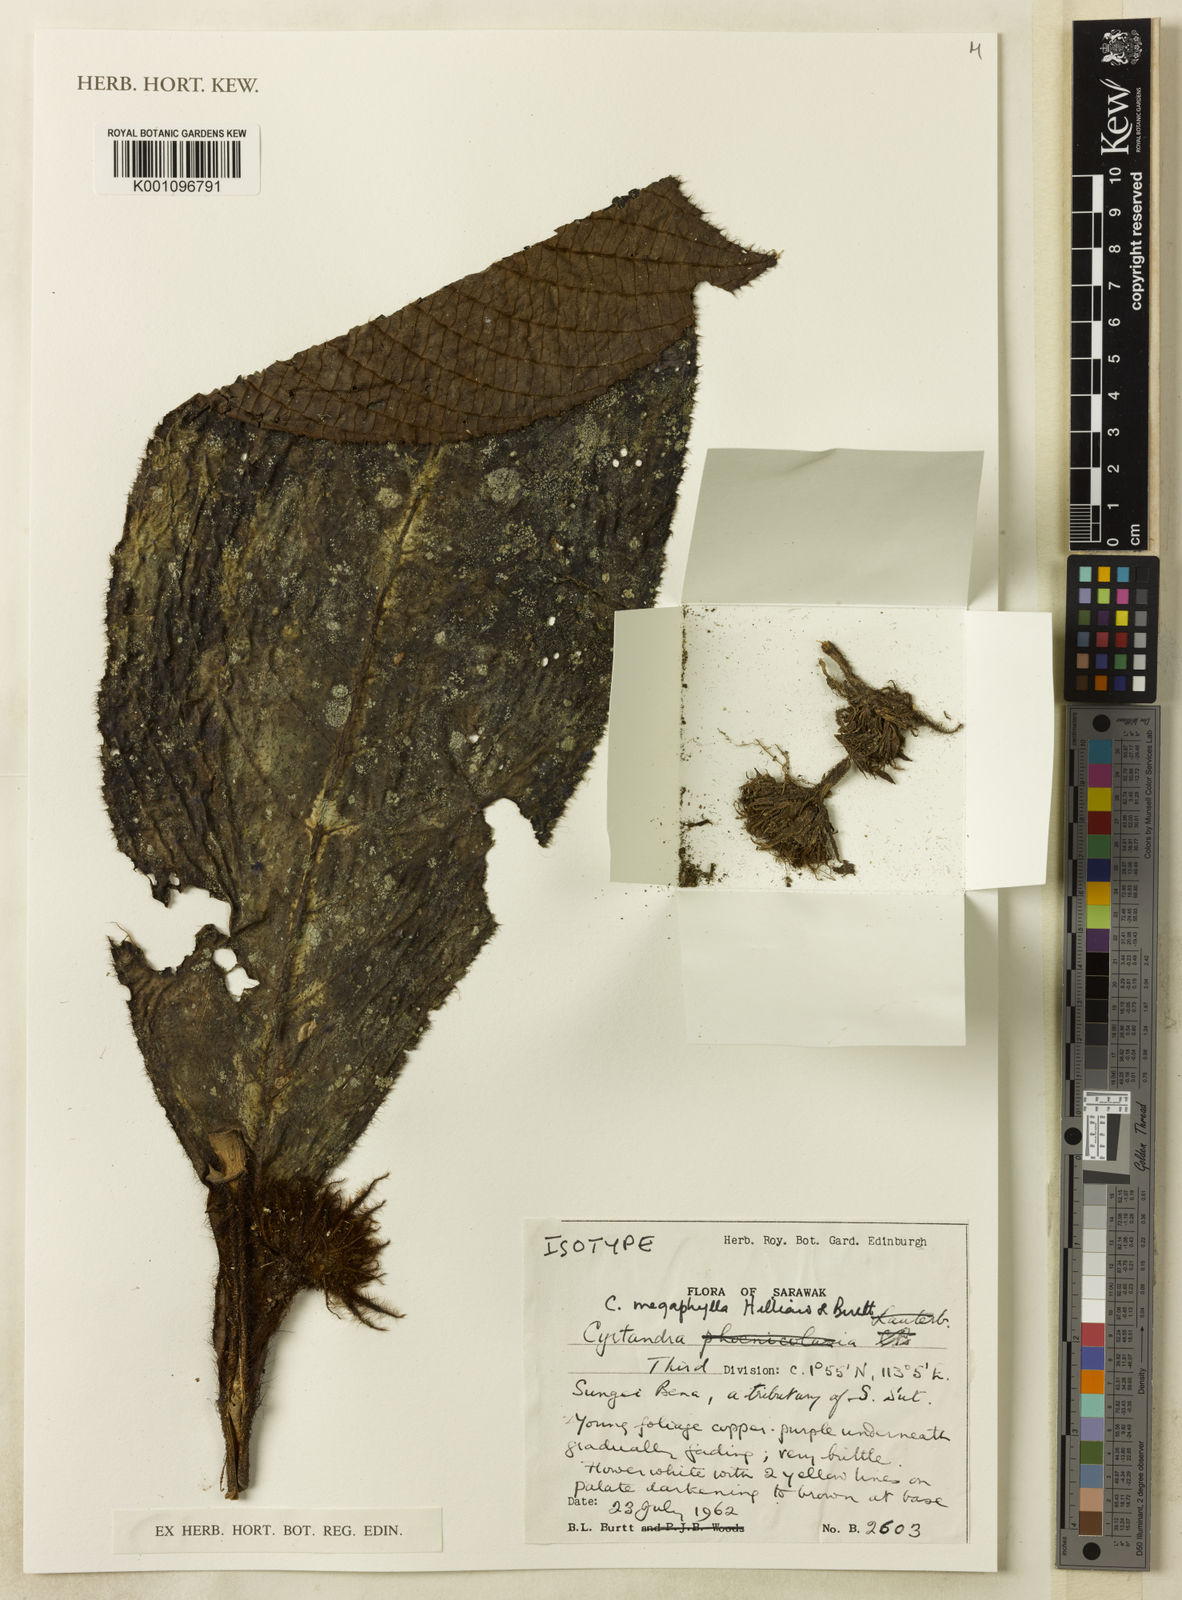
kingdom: Plantae
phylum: Tracheophyta
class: Magnoliopsida
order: Lamiales
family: Gesneriaceae
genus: Cyrtandra
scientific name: Cyrtandra megaphylla
